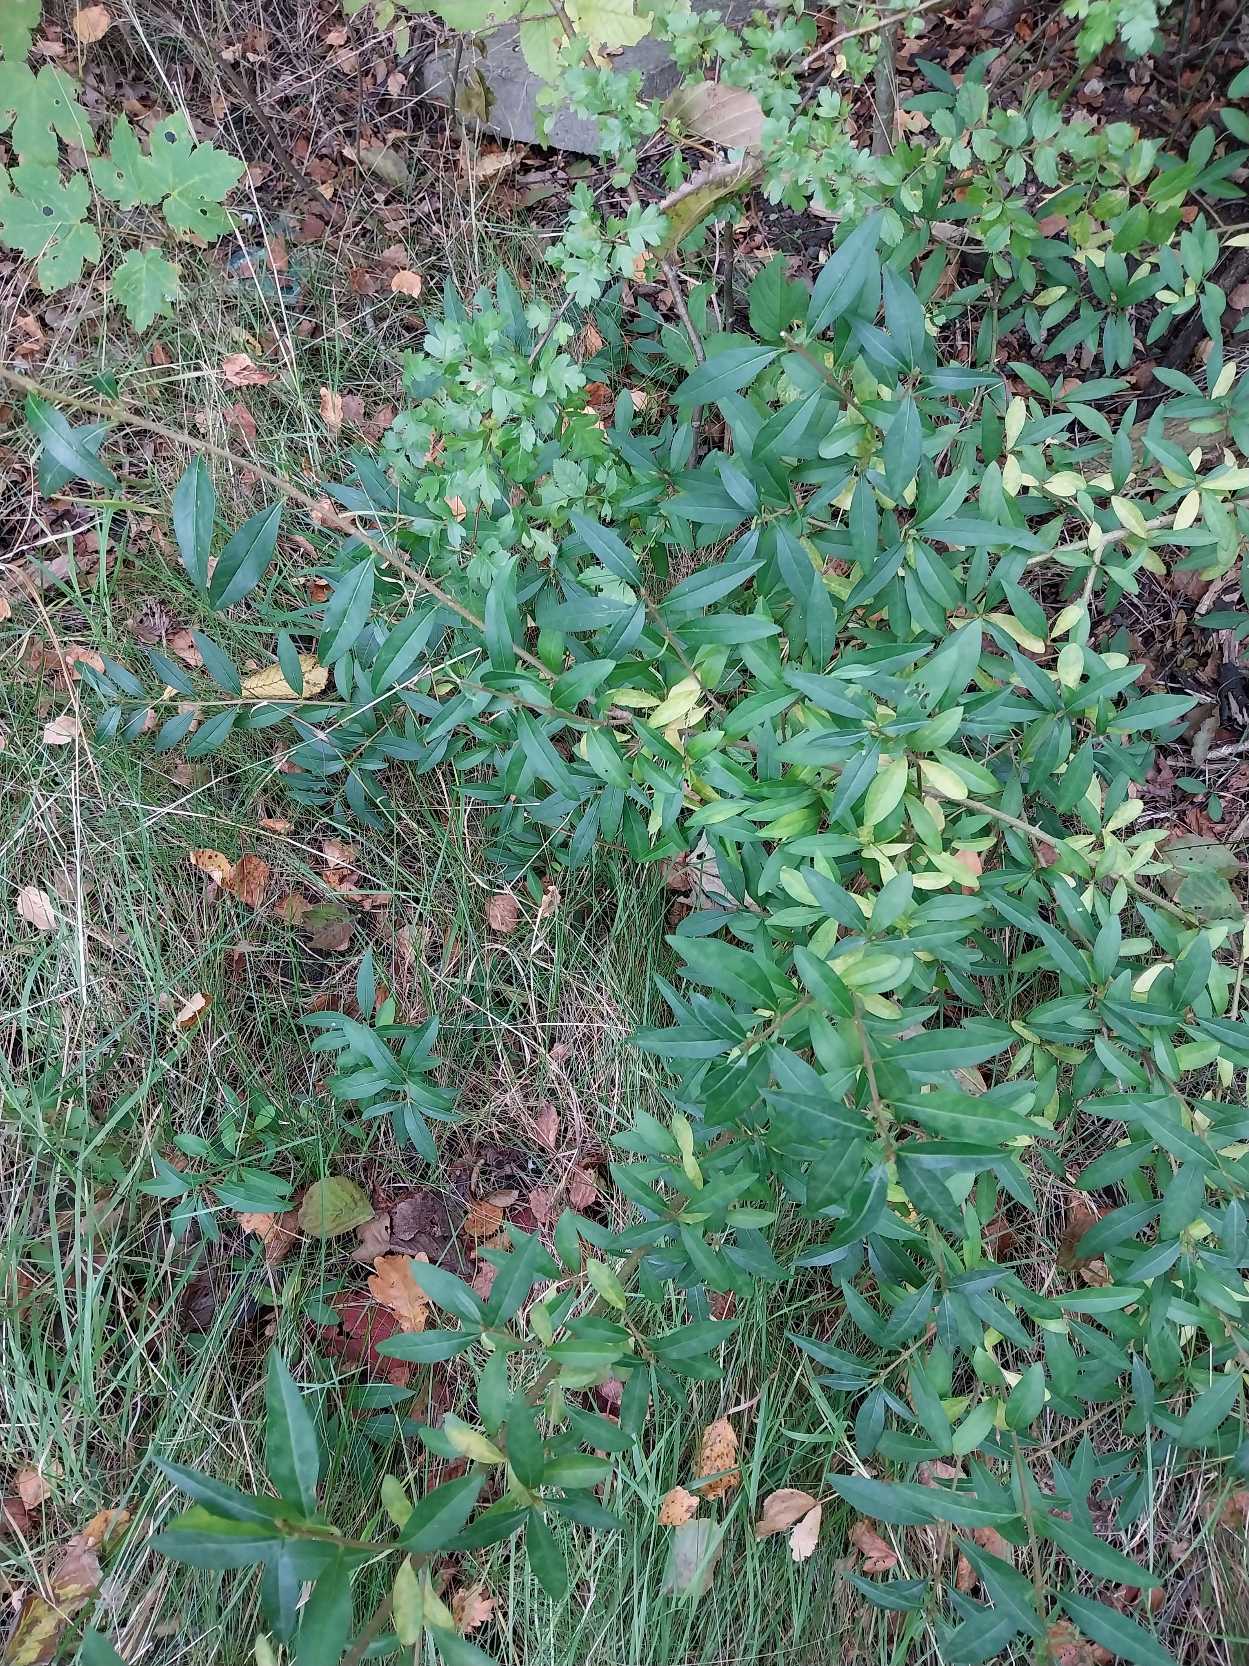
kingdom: Plantae
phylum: Tracheophyta
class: Magnoliopsida
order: Lamiales
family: Oleaceae
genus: Ligustrum
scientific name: Ligustrum vulgare
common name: Liguster
